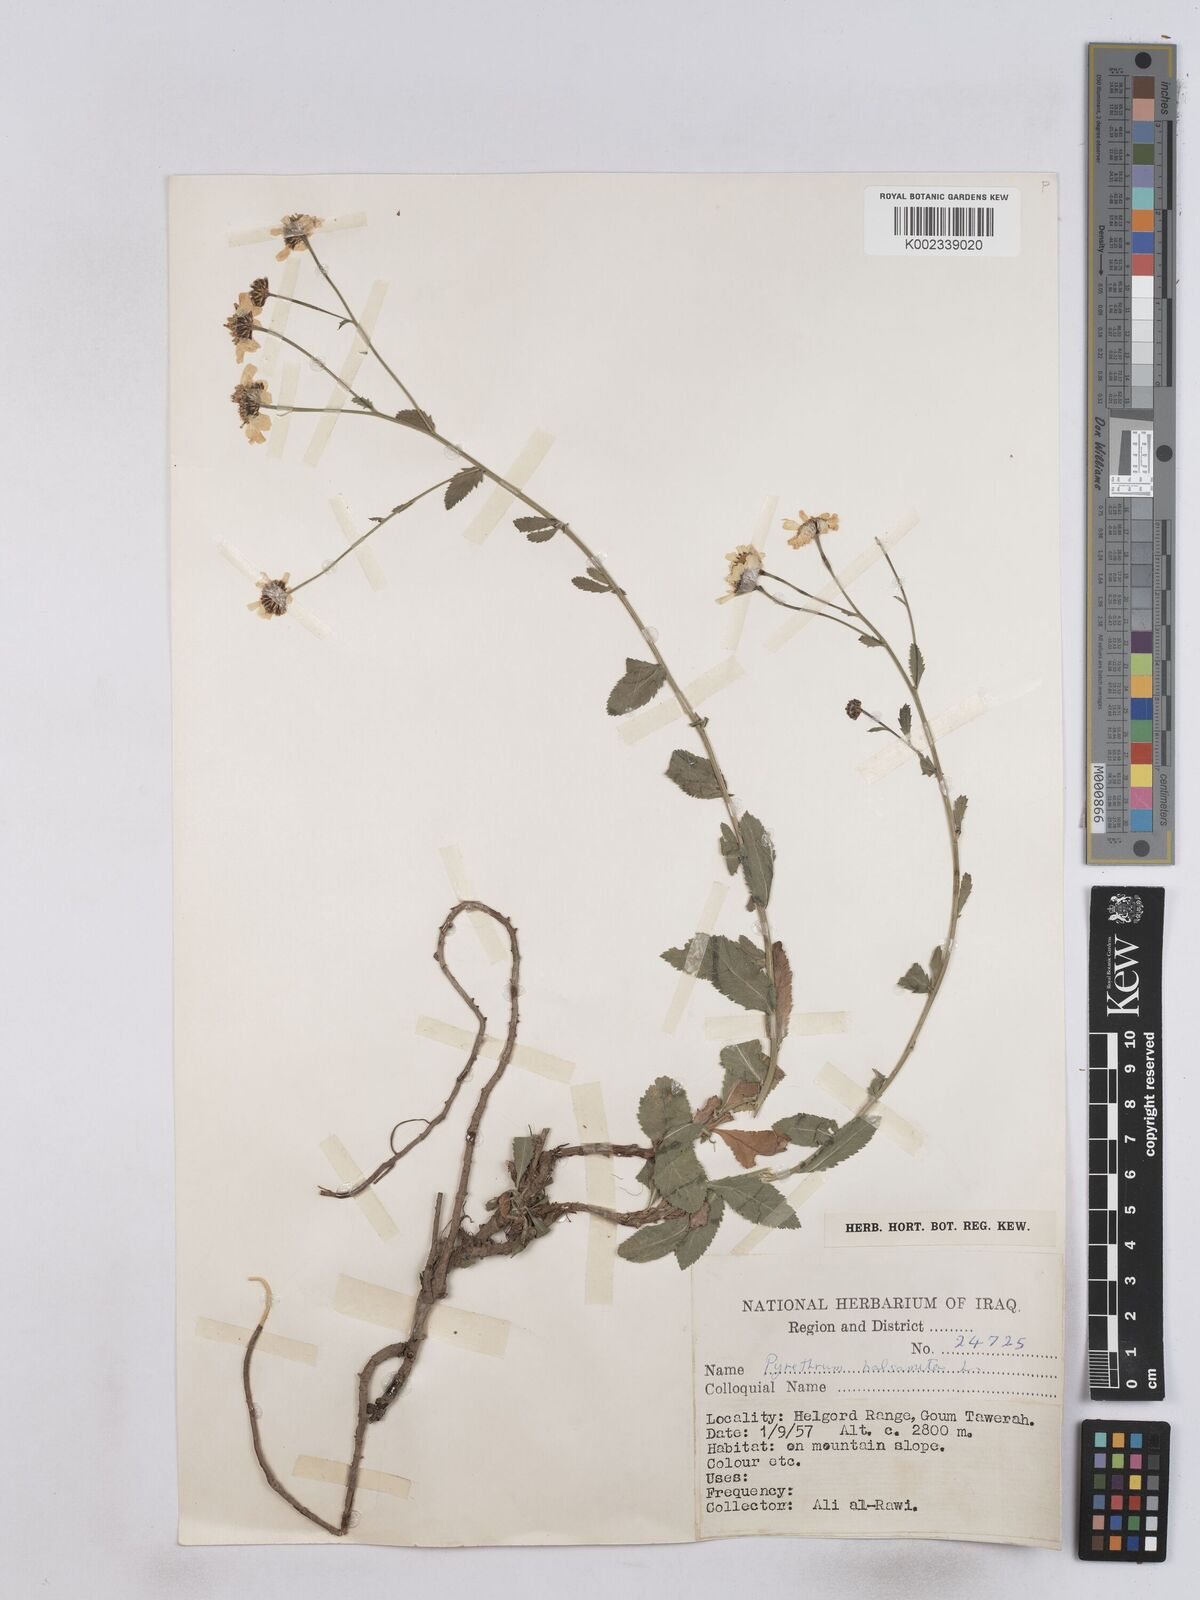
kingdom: Plantae
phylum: Tracheophyta
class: Magnoliopsida
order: Asterales
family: Asteraceae
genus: Tanacetum
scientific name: Tanacetum balsamitoides
